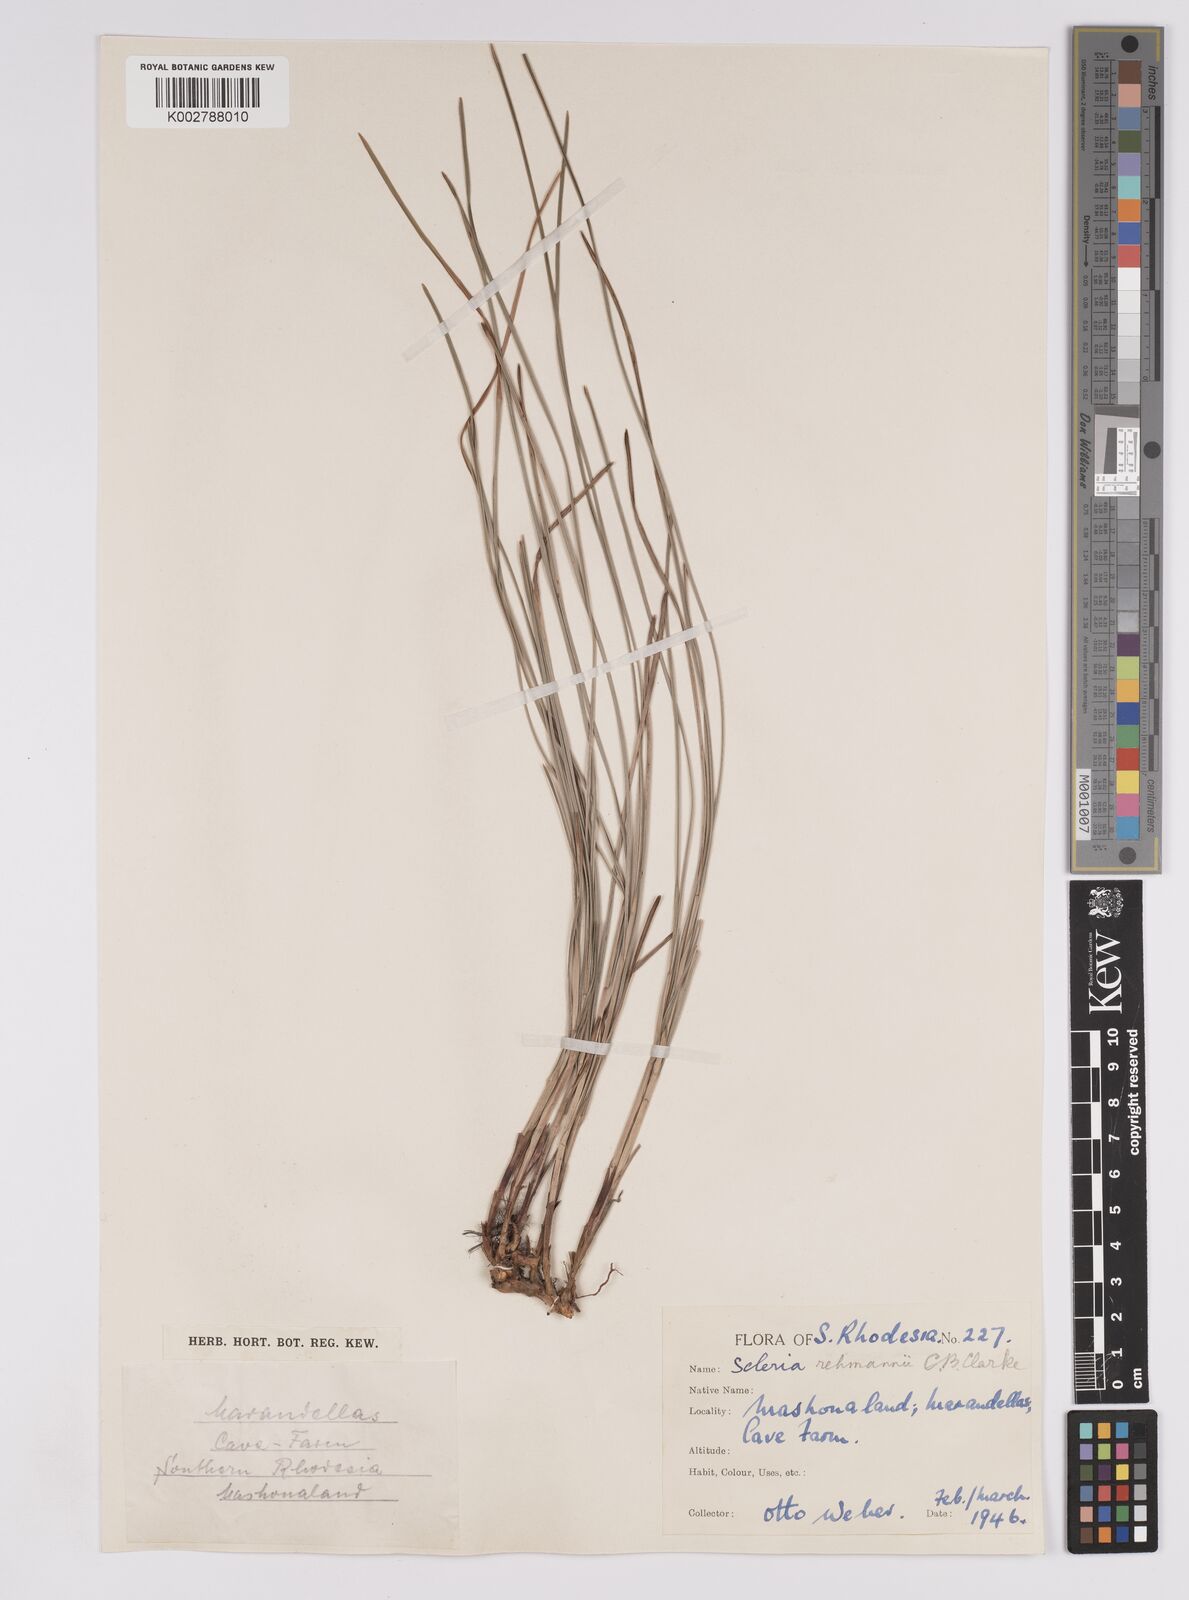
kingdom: Plantae
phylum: Tracheophyta
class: Liliopsida
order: Poales
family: Cyperaceae
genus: Scleria
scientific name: Scleria rehmannii
